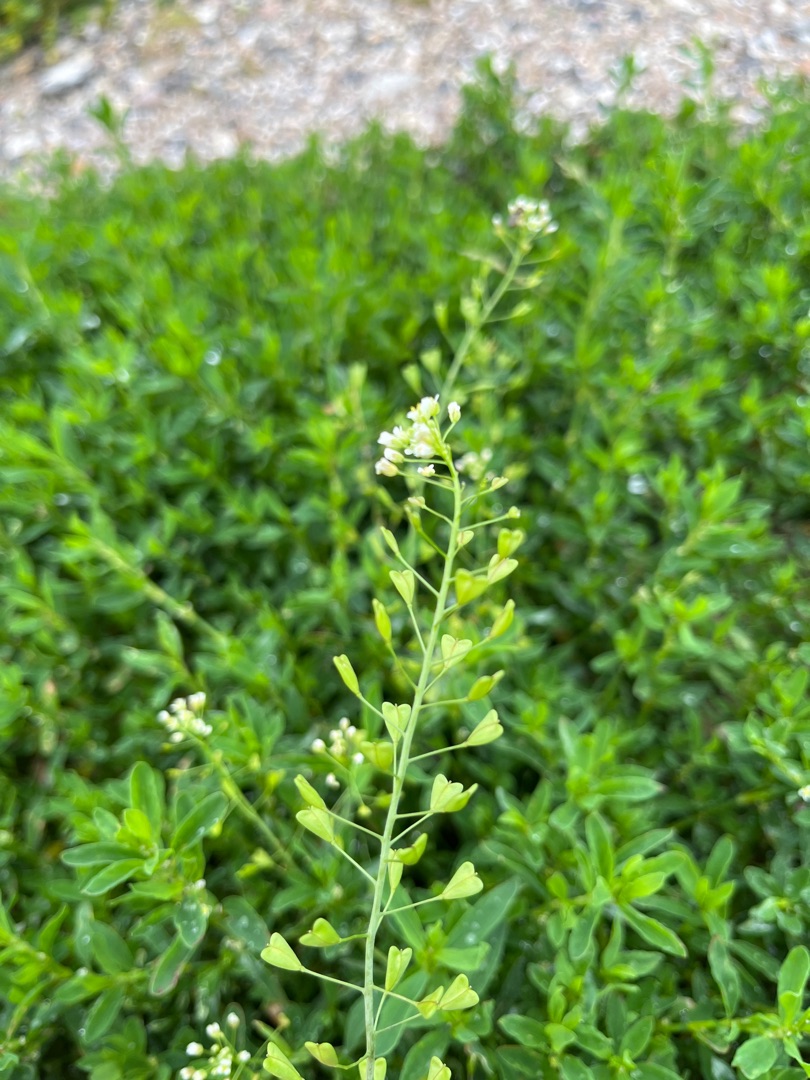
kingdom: Plantae
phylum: Tracheophyta
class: Magnoliopsida
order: Brassicales
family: Brassicaceae
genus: Capsella
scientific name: Capsella bursa-pastoris
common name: Hyrdetaske
